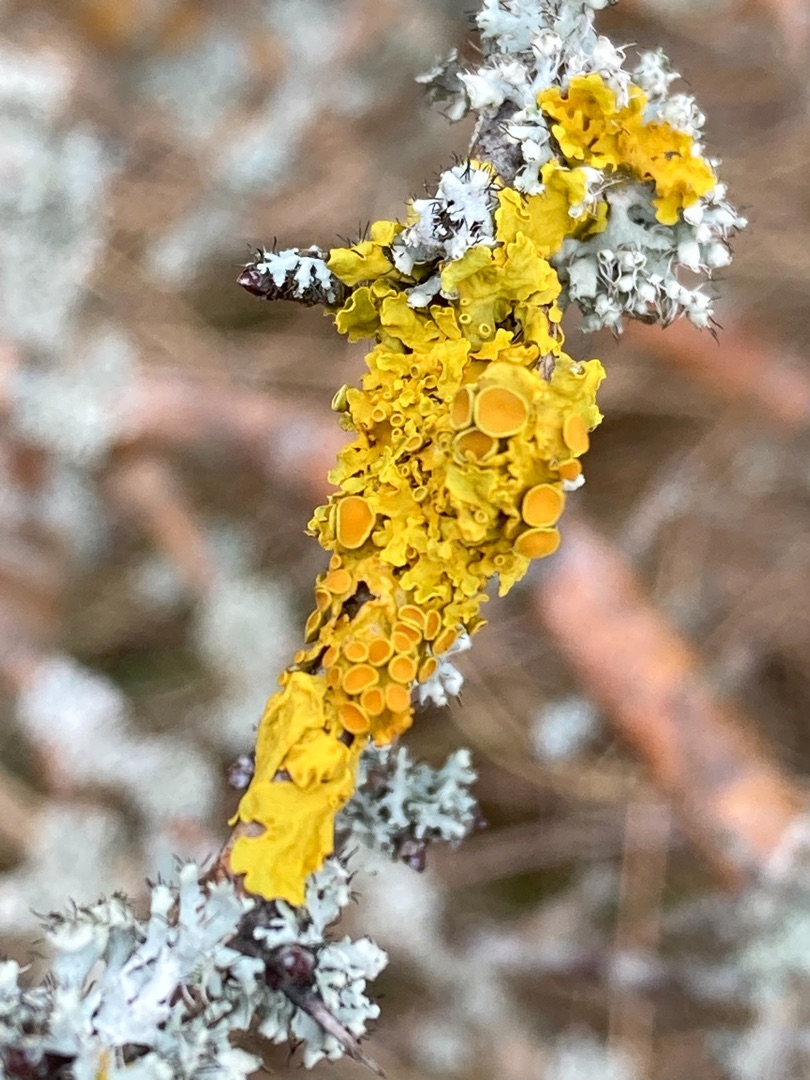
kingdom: Fungi
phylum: Ascomycota
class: Lecanoromycetes
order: Teloschistales
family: Teloschistaceae
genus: Xanthoria
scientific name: Xanthoria parietina
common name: Almindelig væggelav
